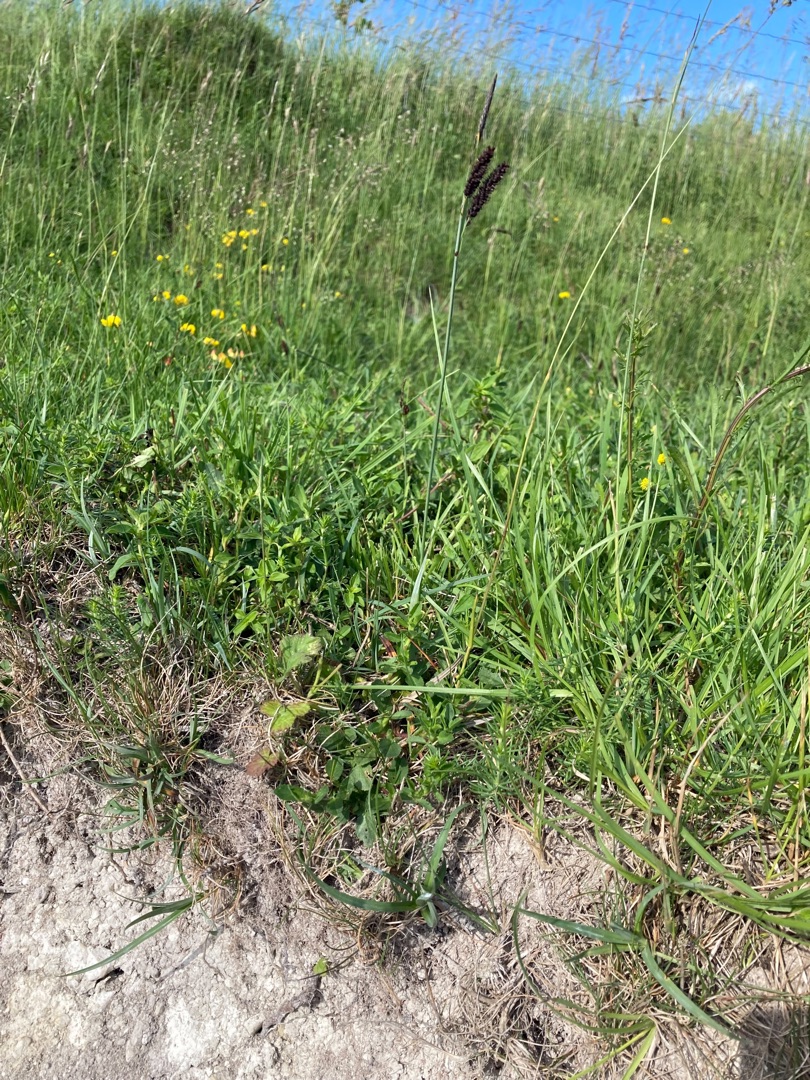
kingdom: Plantae
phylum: Tracheophyta
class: Liliopsida
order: Poales
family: Cyperaceae
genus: Carex
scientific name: Carex flacca
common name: Blågrøn star
